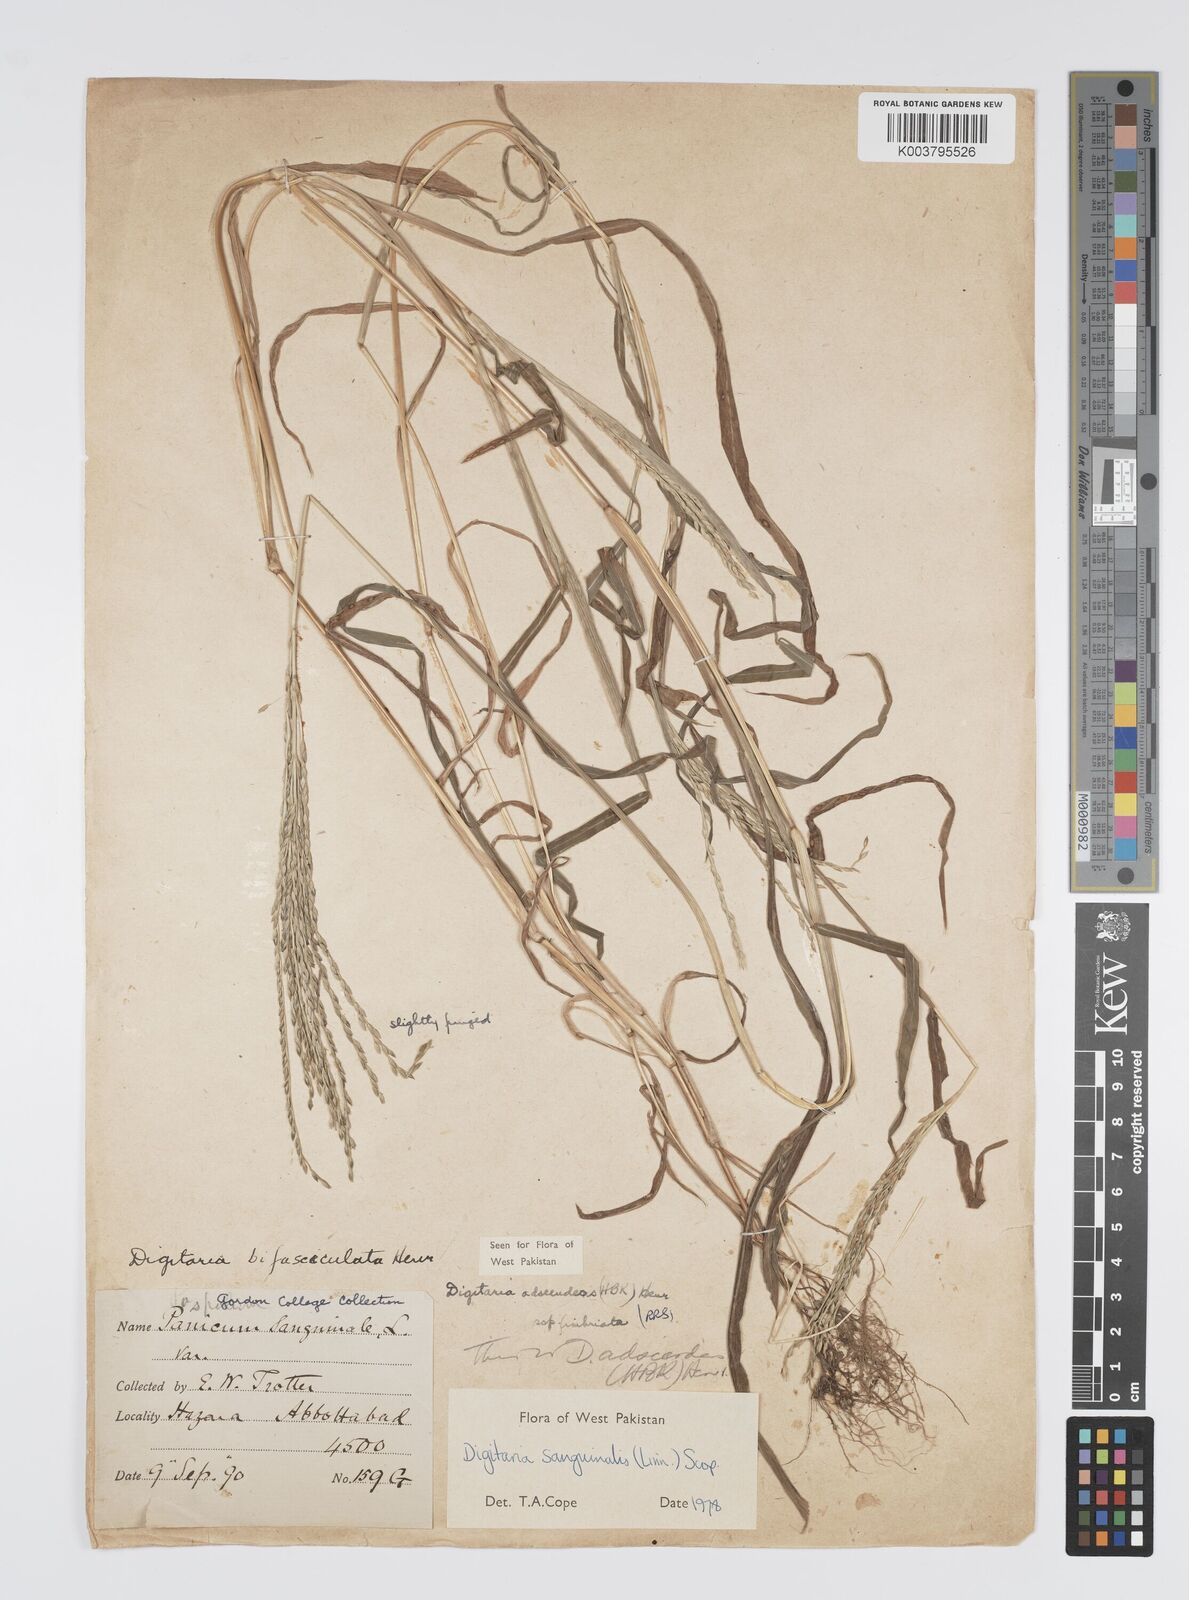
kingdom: Plantae
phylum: Tracheophyta
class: Liliopsida
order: Poales
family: Poaceae
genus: Digitaria
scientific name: Digitaria sanguinalis
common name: Hairy crabgrass
